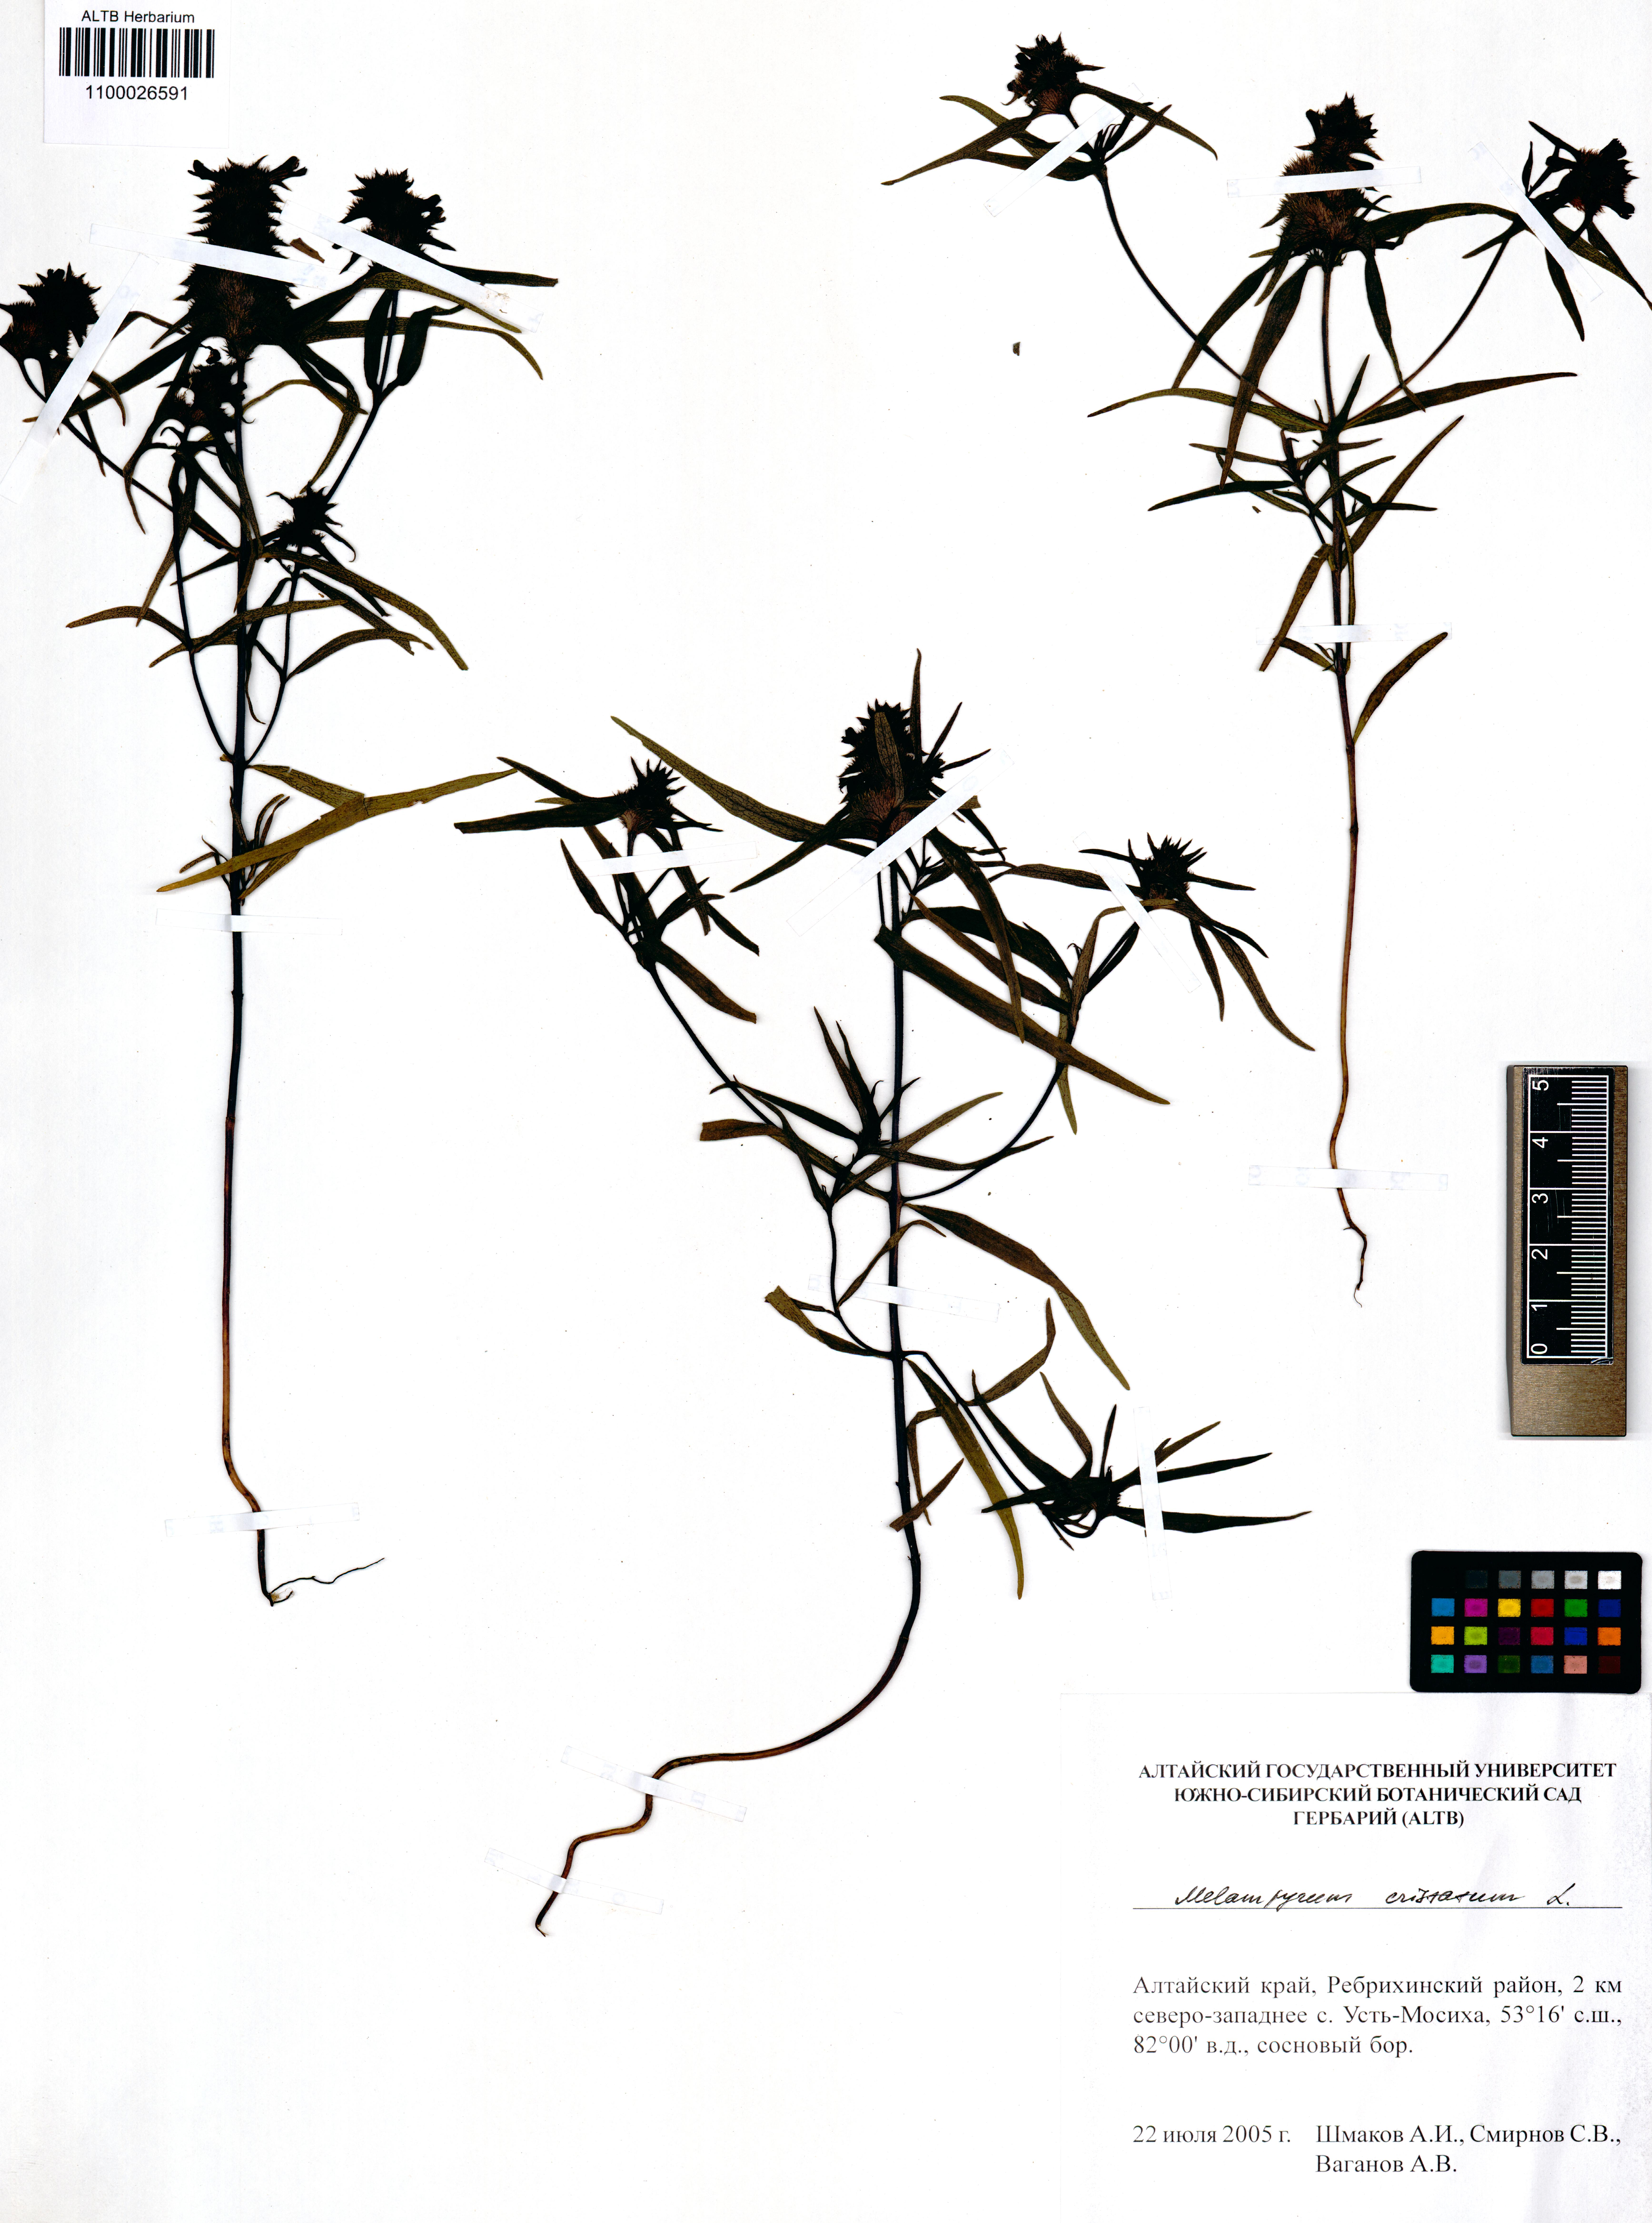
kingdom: Plantae
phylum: Tracheophyta
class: Magnoliopsida
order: Lamiales
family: Orobanchaceae
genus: Melampyrum
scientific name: Melampyrum cristatum
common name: Crested cow-wheat
